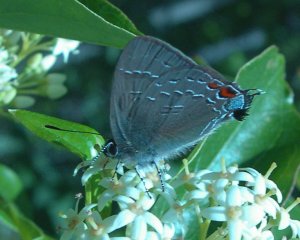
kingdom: Animalia
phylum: Arthropoda
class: Insecta
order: Lepidoptera
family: Lycaenidae
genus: Satyrium
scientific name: Satyrium calanus
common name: Banded Hairstreak
